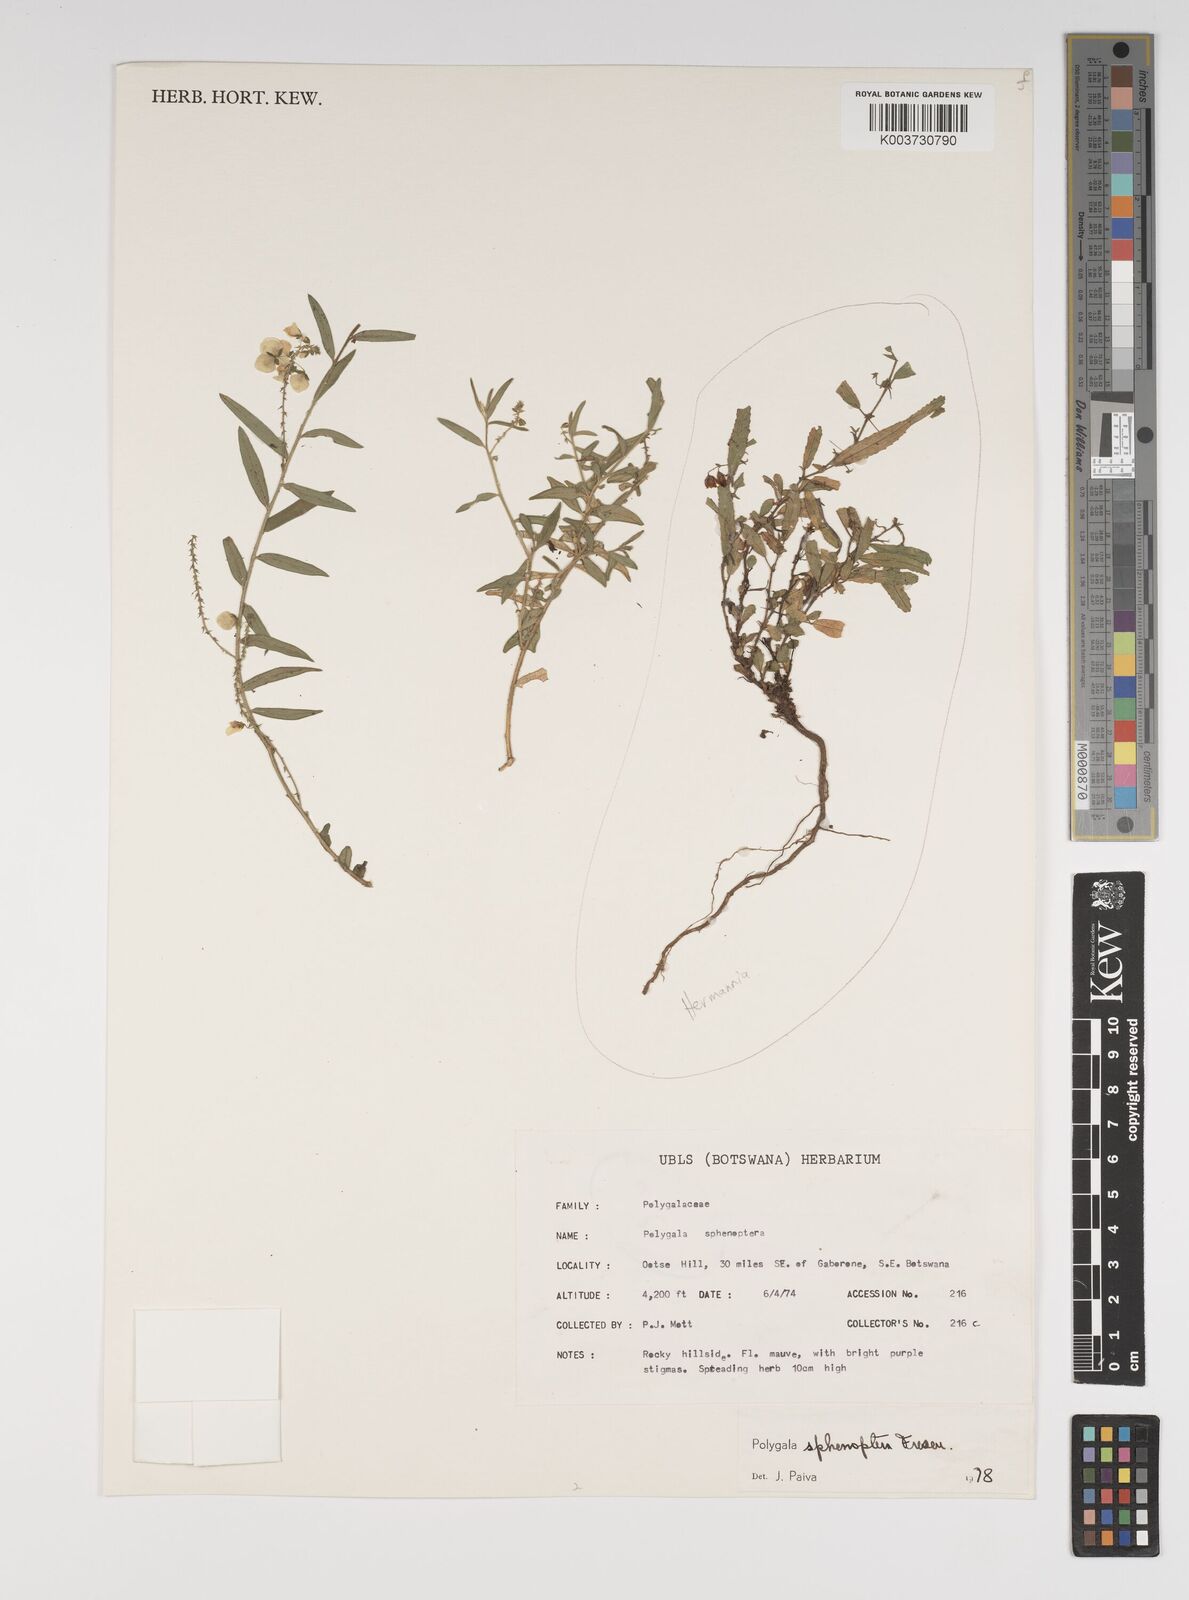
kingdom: Plantae
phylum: Tracheophyta
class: Magnoliopsida
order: Fabales
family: Polygalaceae
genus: Polygala
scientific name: Polygala sphenoptera
